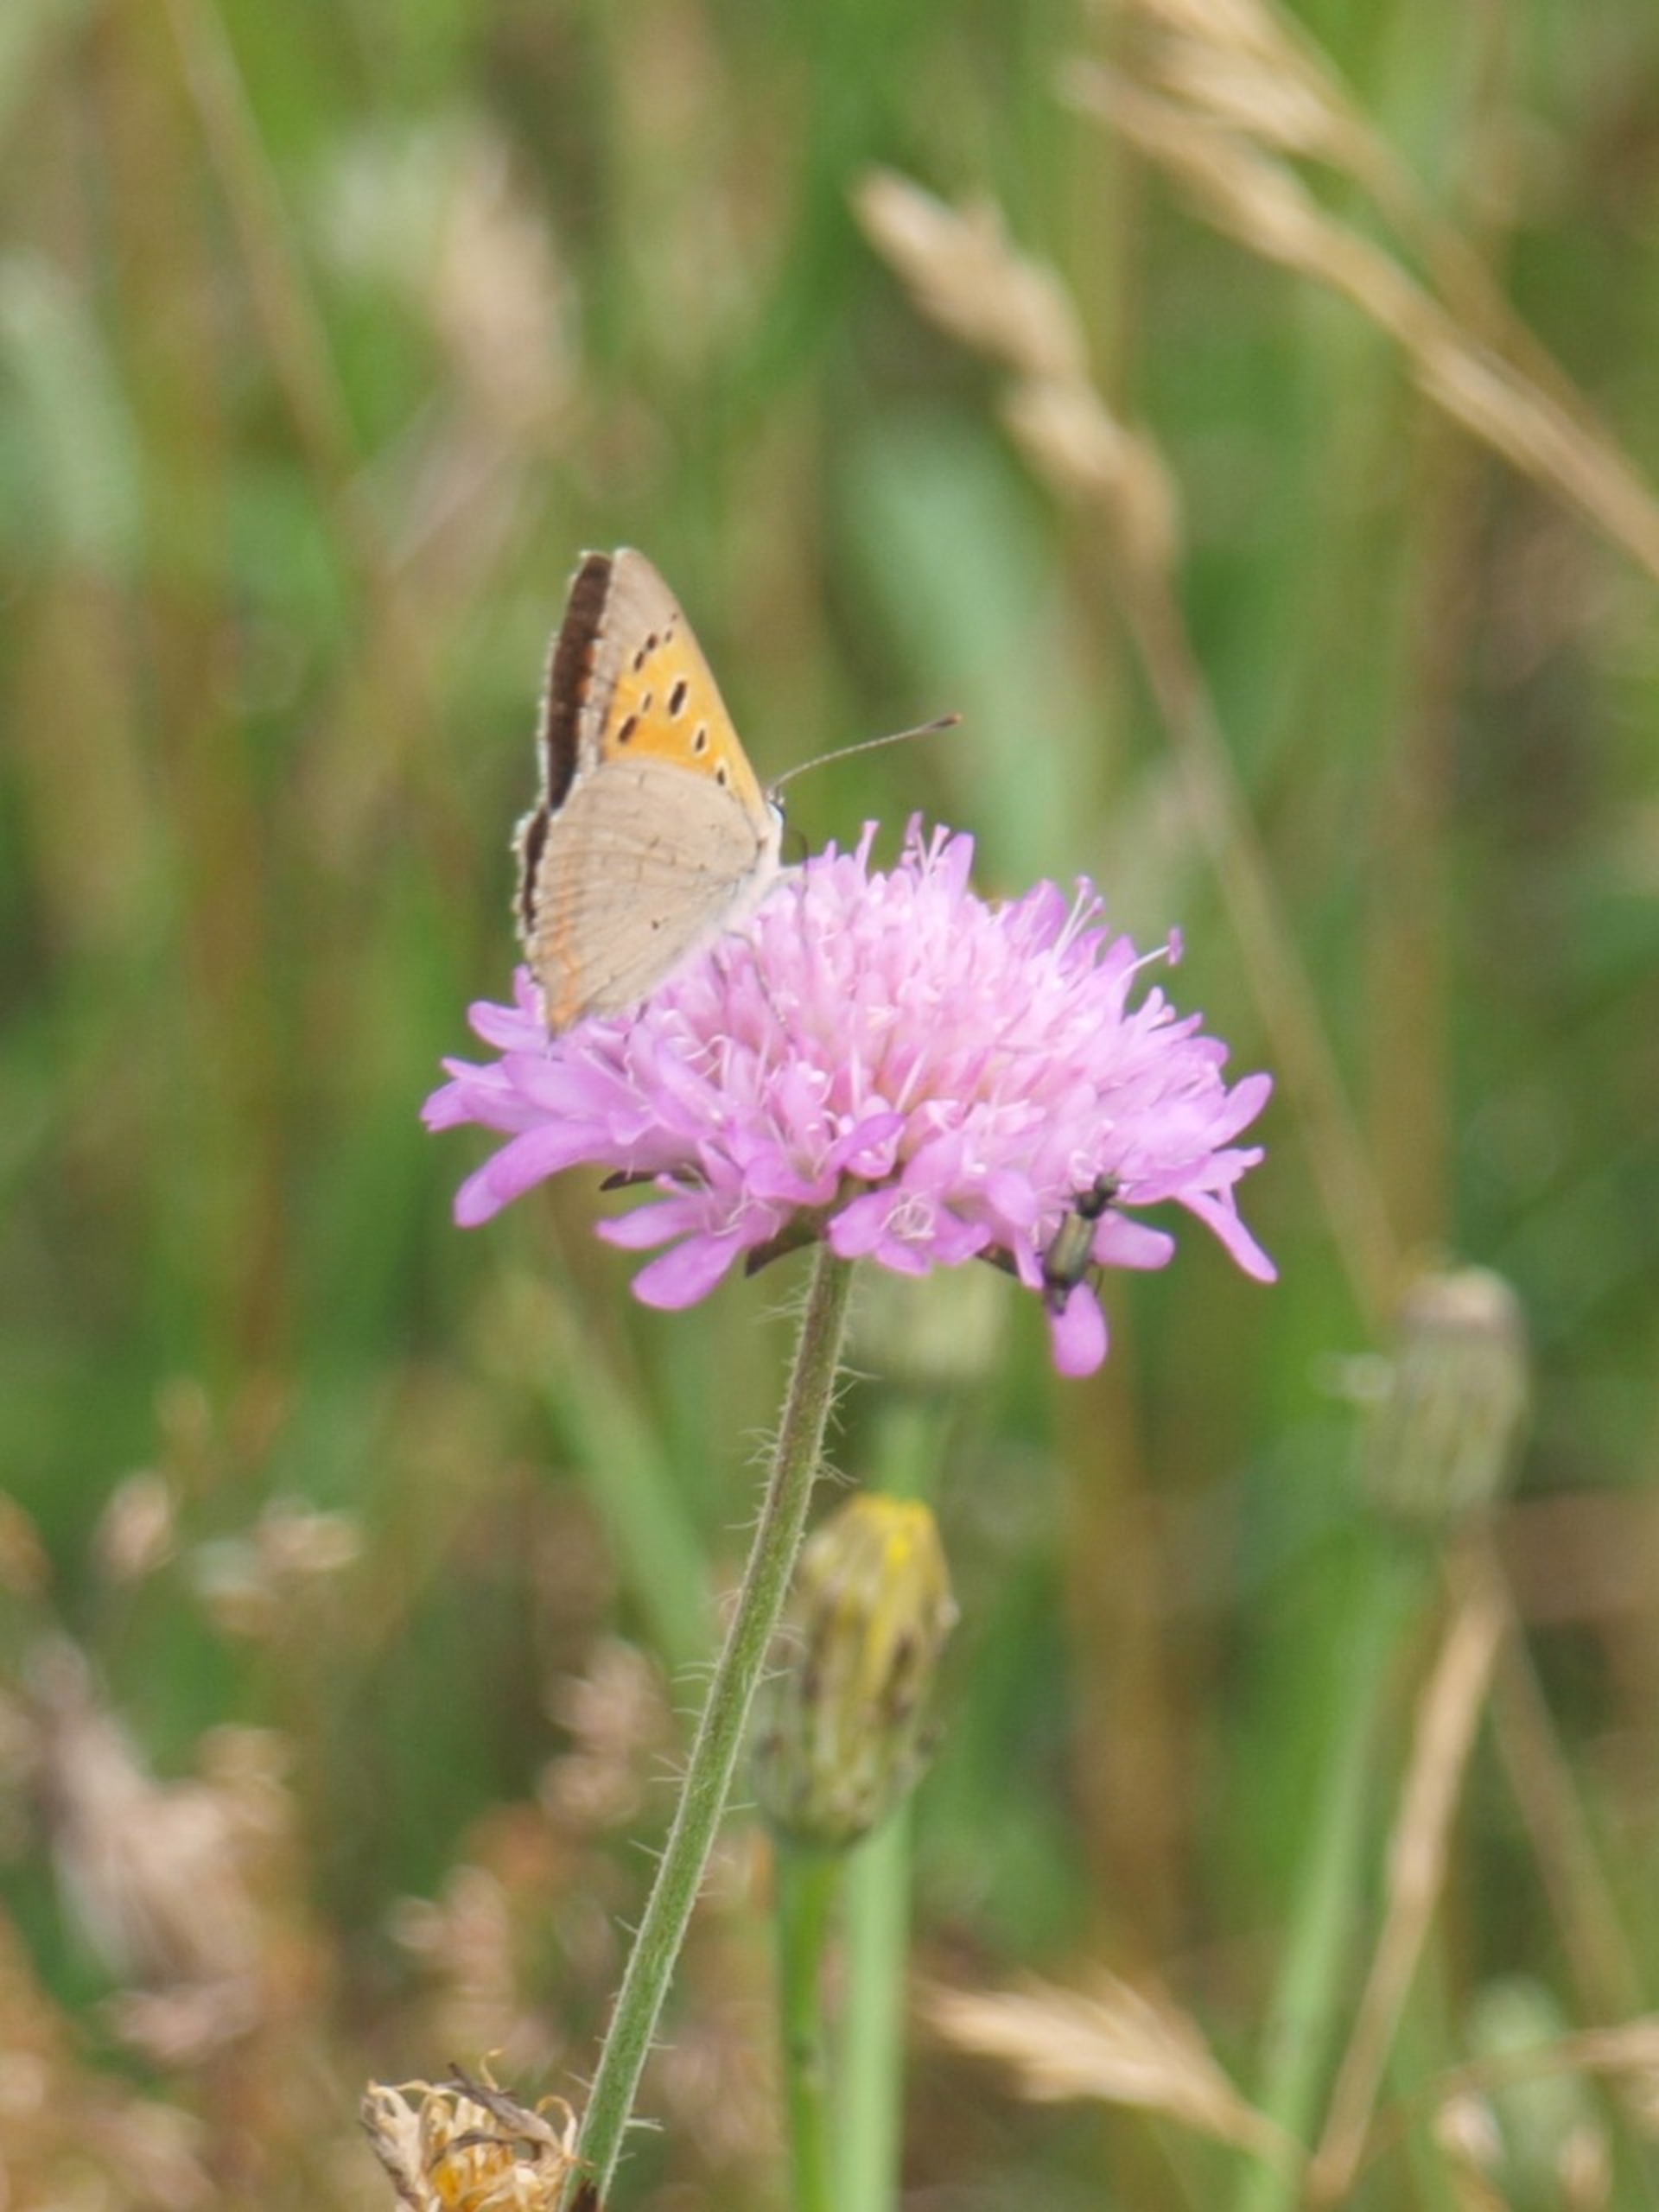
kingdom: Animalia
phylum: Arthropoda
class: Insecta
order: Lepidoptera
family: Lycaenidae
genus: Lycaena
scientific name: Lycaena phlaeas
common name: Lille ildfugl
